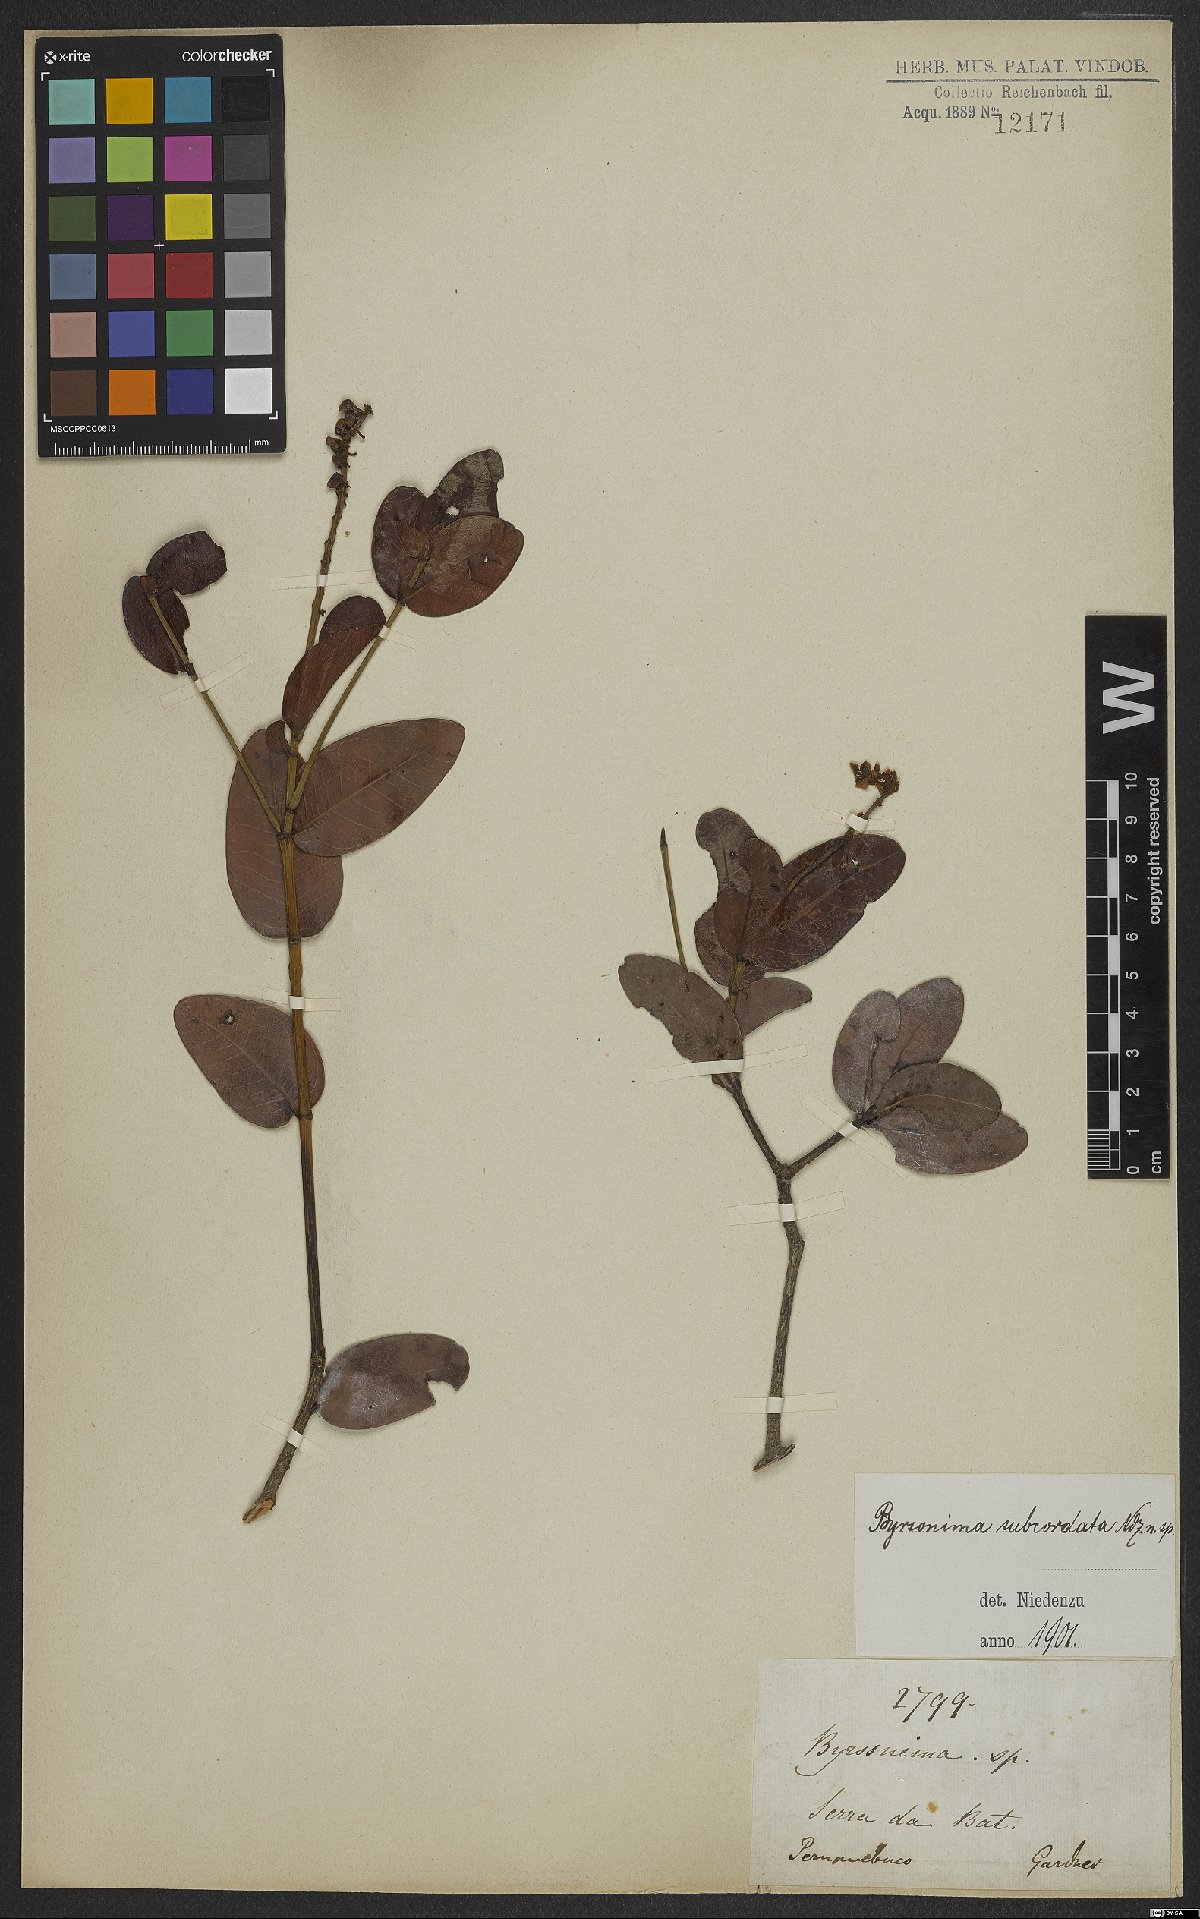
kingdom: Plantae
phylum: Tracheophyta
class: Magnoliopsida
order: Malpighiales
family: Malpighiaceae
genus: Byrsonima
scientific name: Byrsonima subcordata
